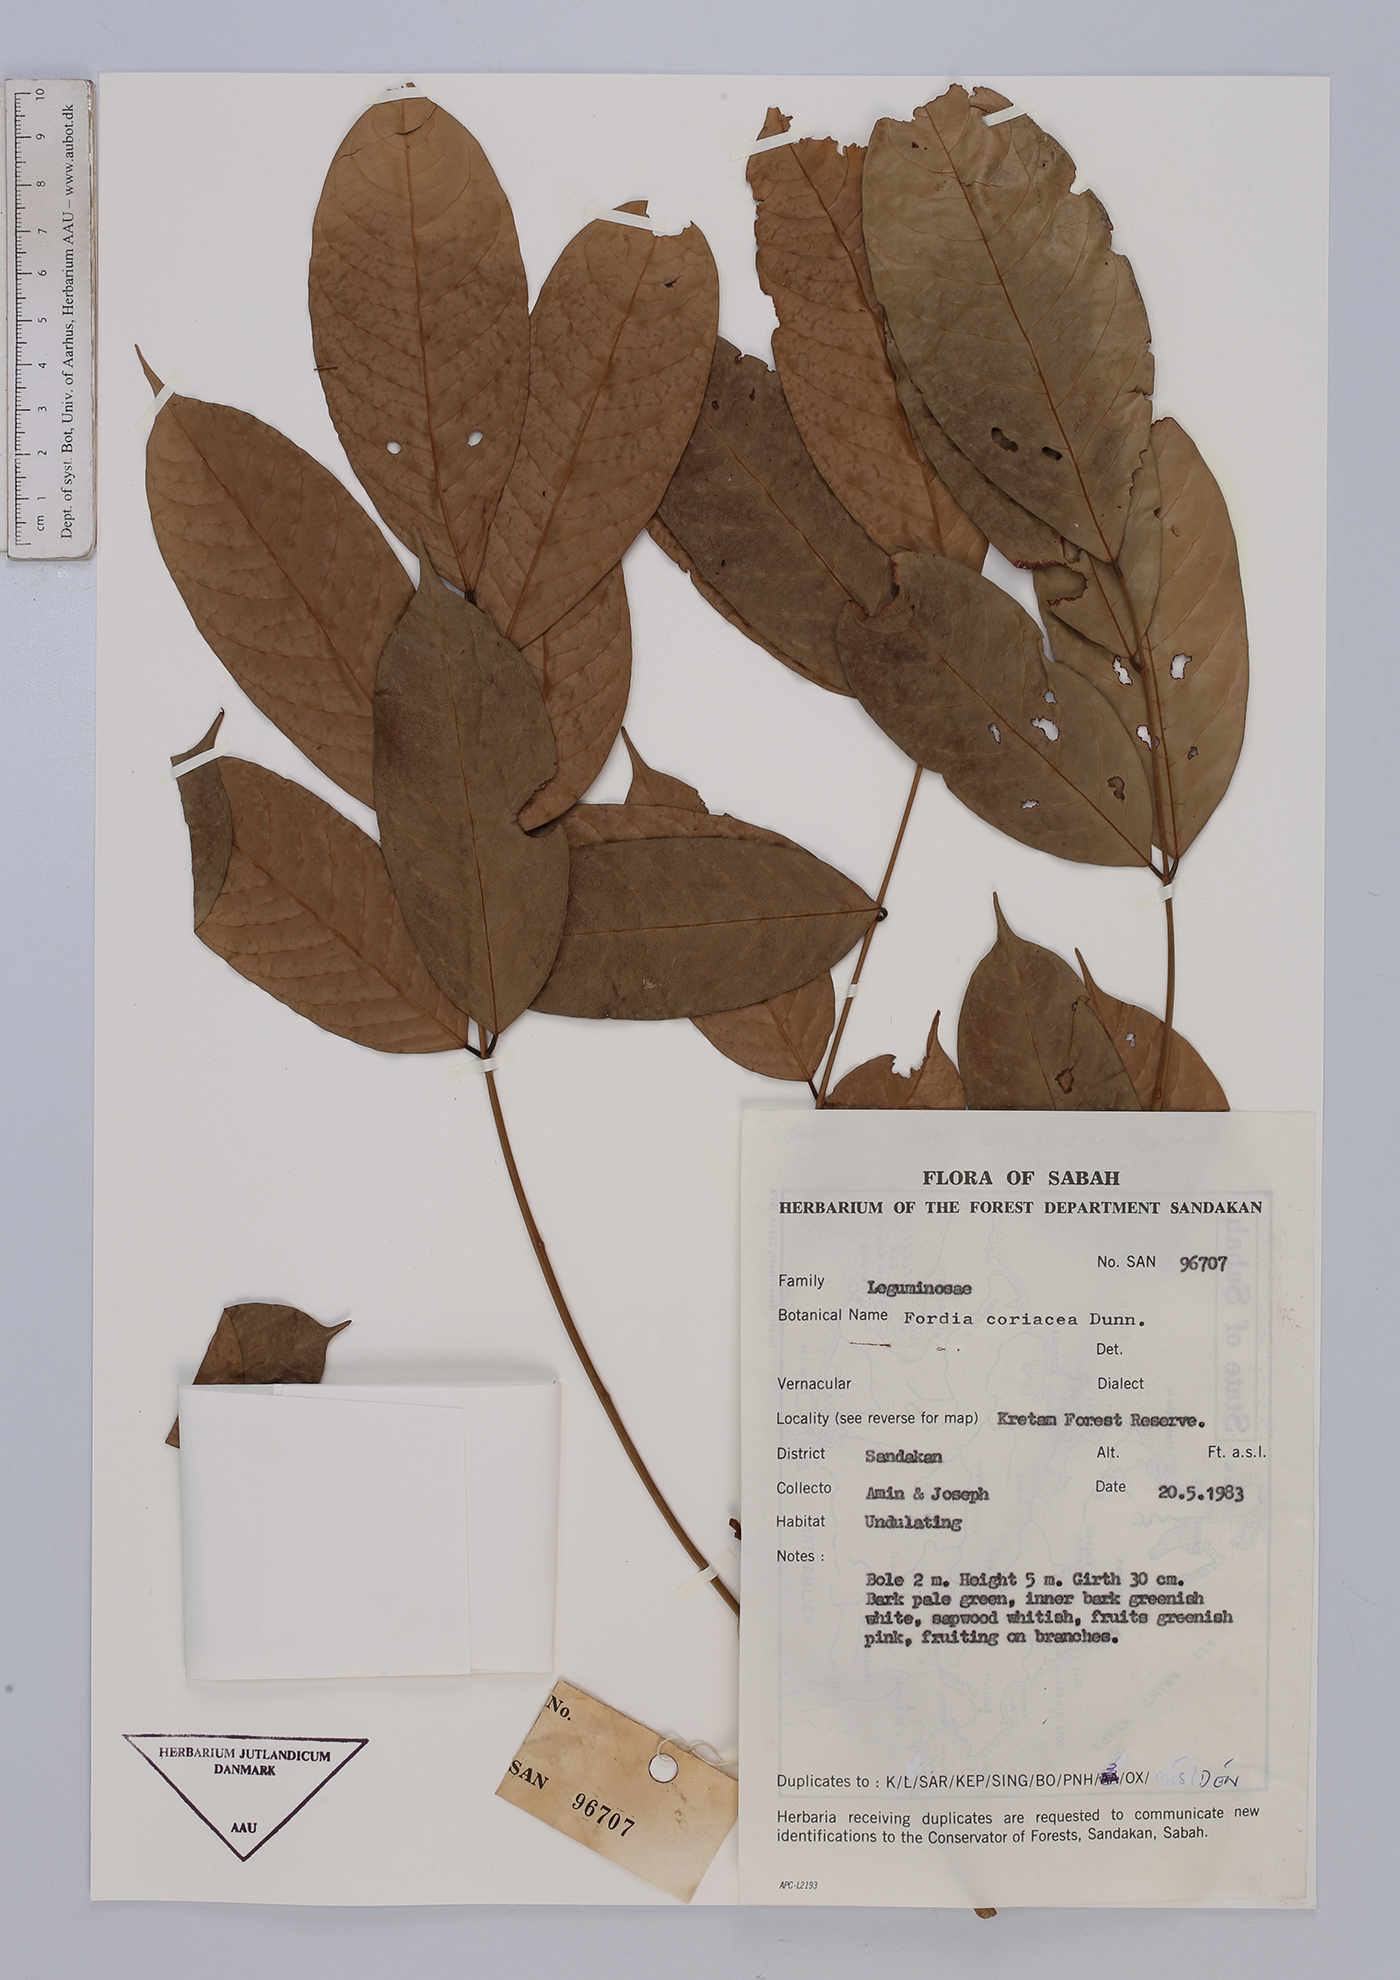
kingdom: Plantae
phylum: Tracheophyta
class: Magnoliopsida
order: Fabales
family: Fabaceae
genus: Fordia
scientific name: Fordia splendidissima
